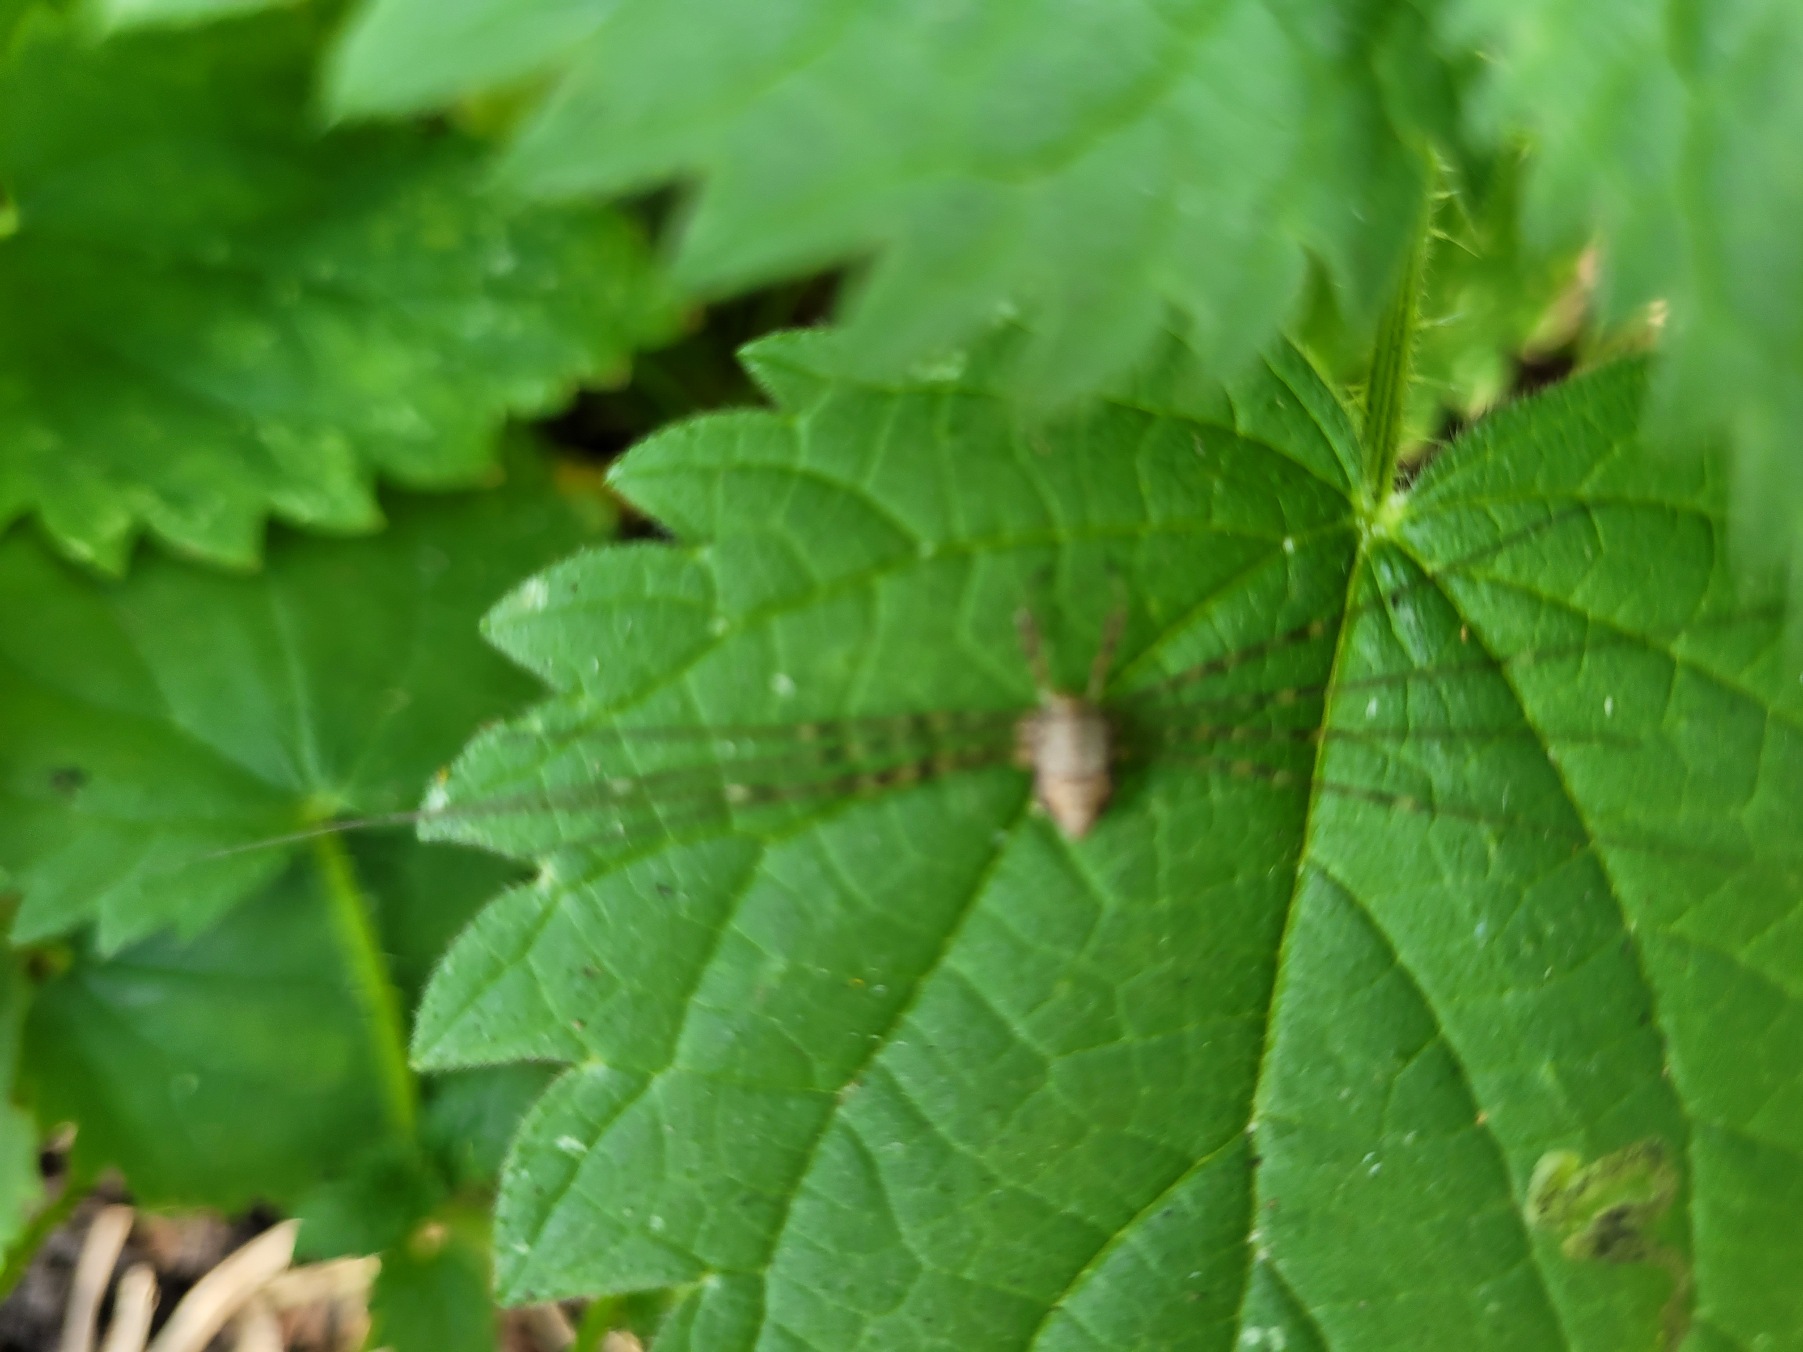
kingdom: Animalia
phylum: Arthropoda
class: Arachnida
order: Opiliones
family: Phalangiidae
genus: Dicranopalpus
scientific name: Dicranopalpus ramosus
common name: Gaffelmejer
